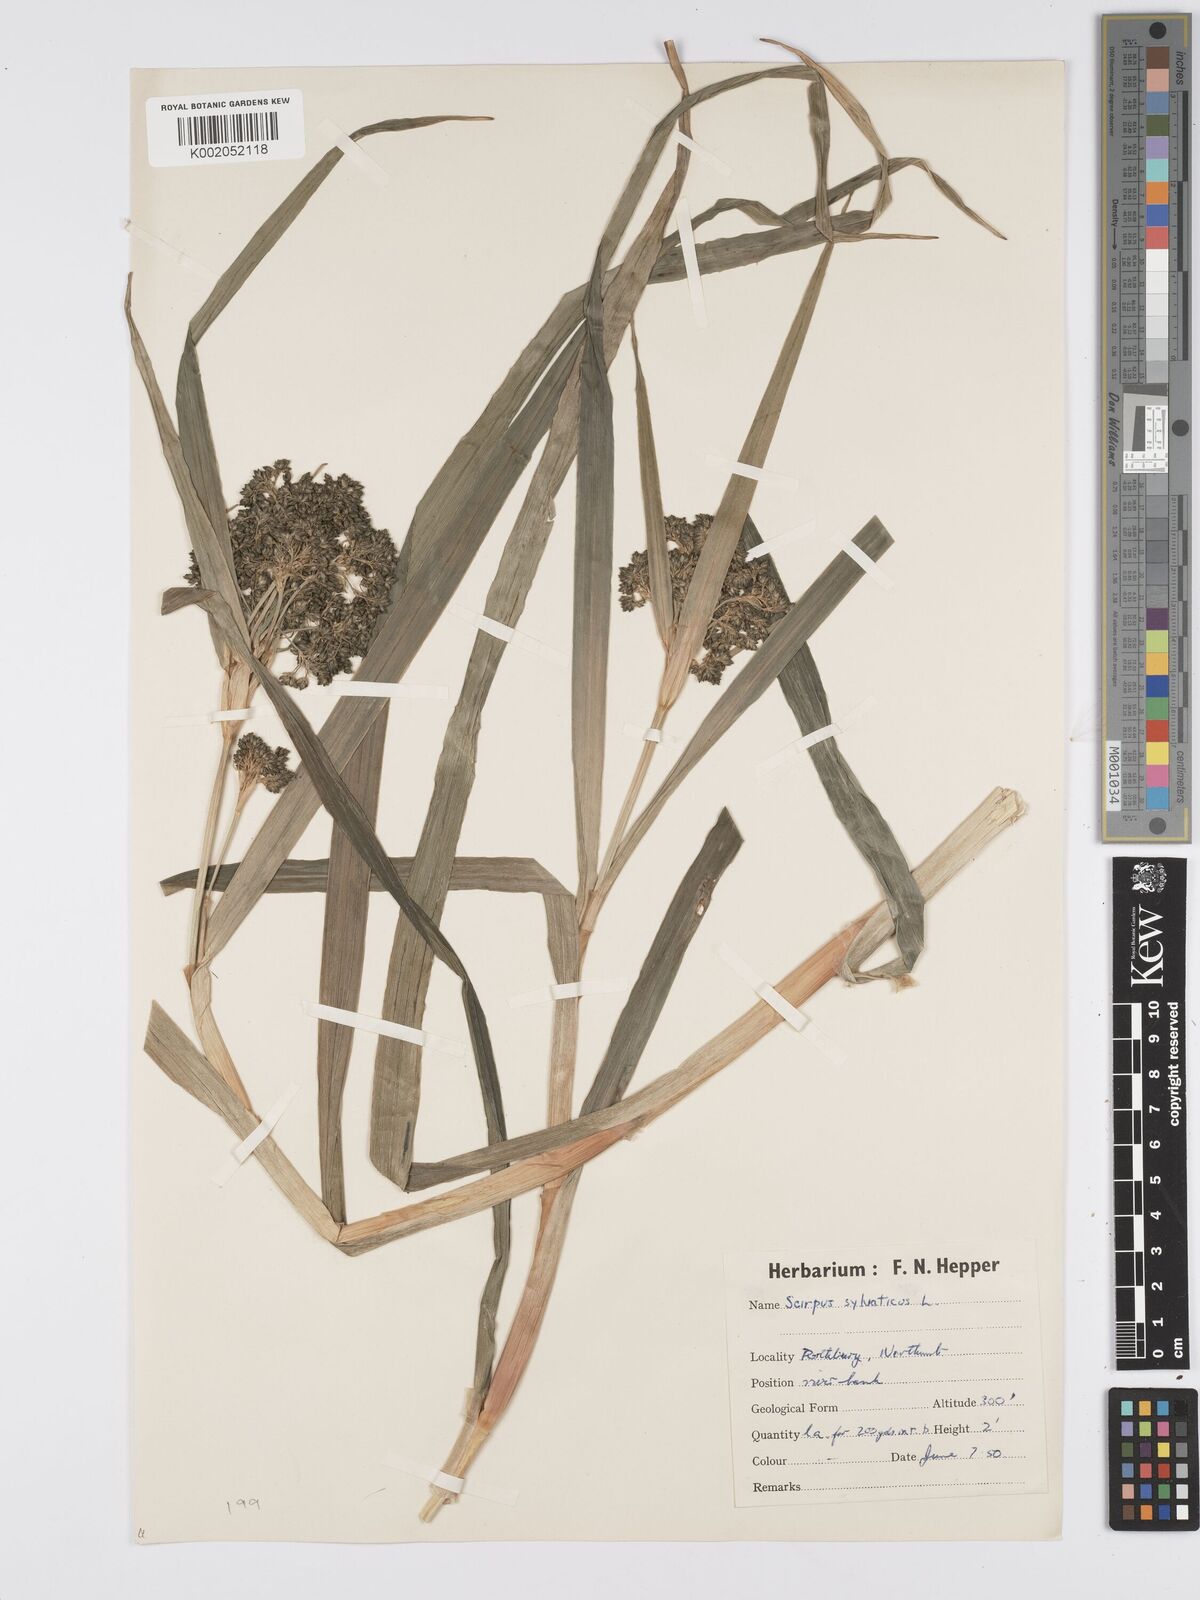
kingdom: Plantae
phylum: Tracheophyta
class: Liliopsida
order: Poales
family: Cyperaceae
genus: Scirpus
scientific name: Scirpus sylvaticus
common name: Wood club-rush
